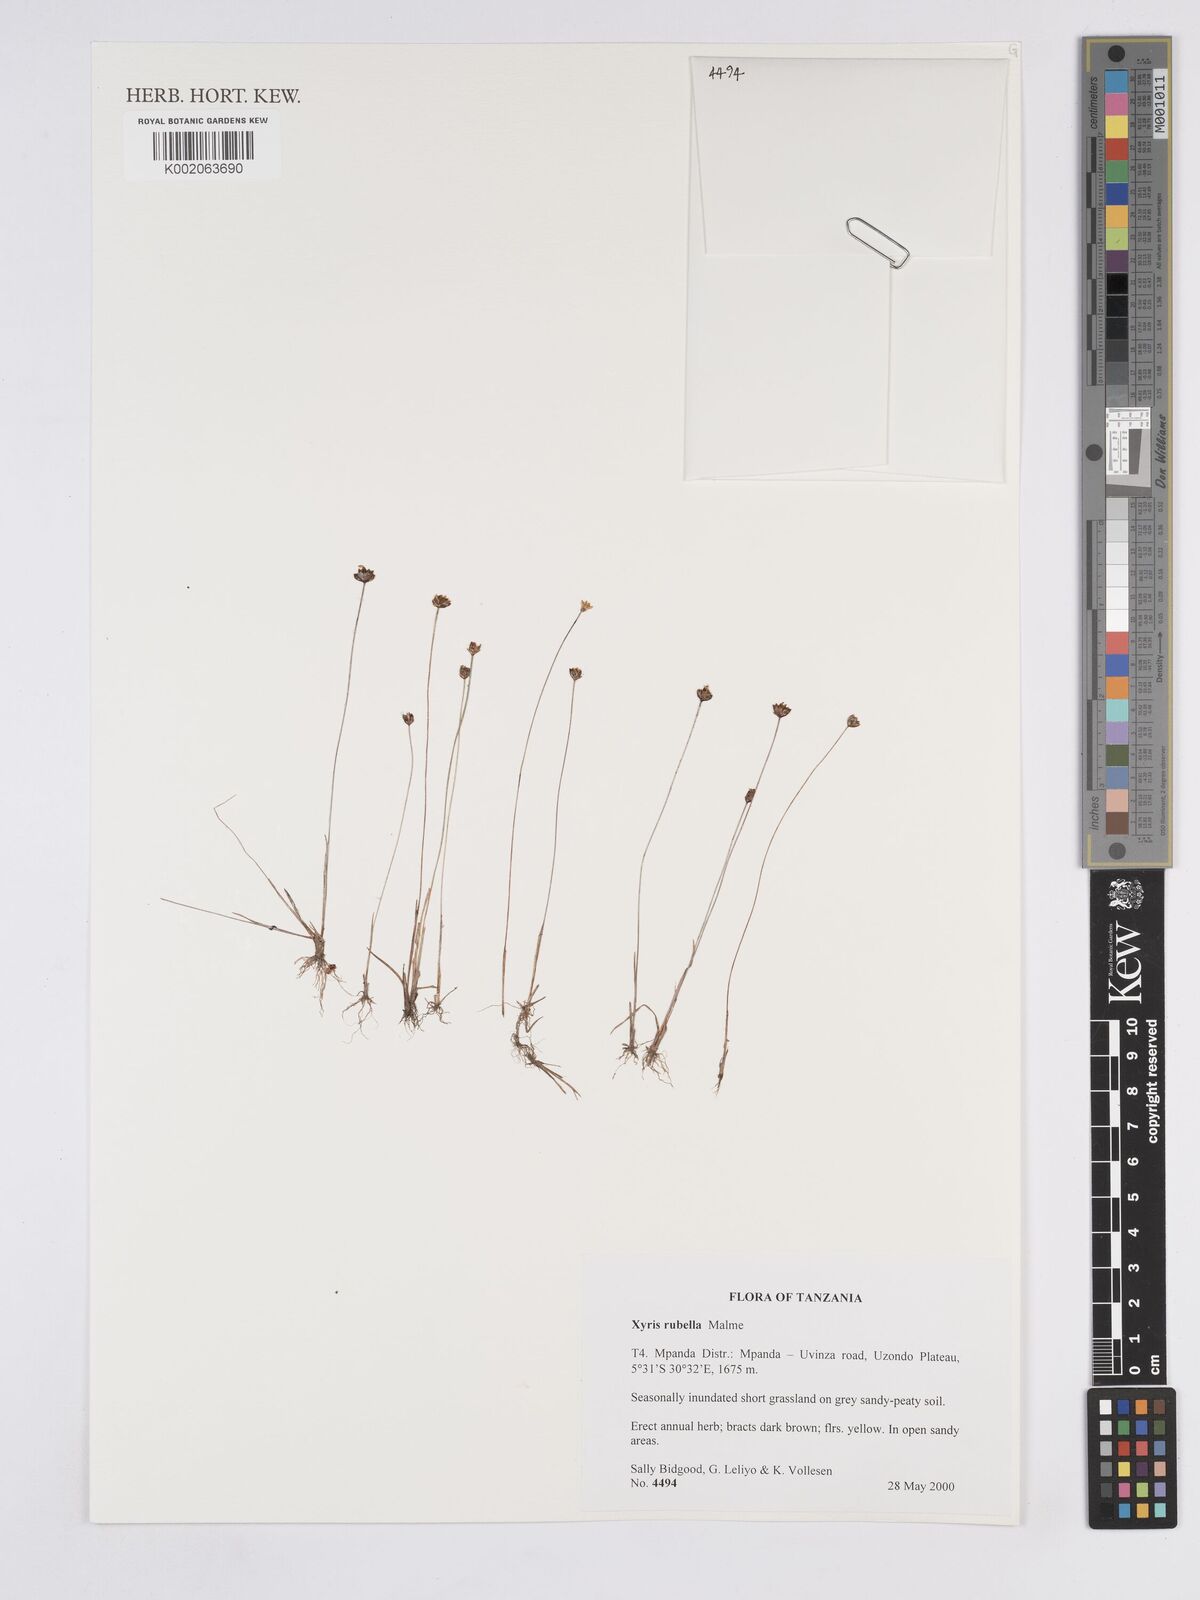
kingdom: Plantae
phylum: Tracheophyta
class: Liliopsida
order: Poales
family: Xyridaceae
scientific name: Xyridaceae
